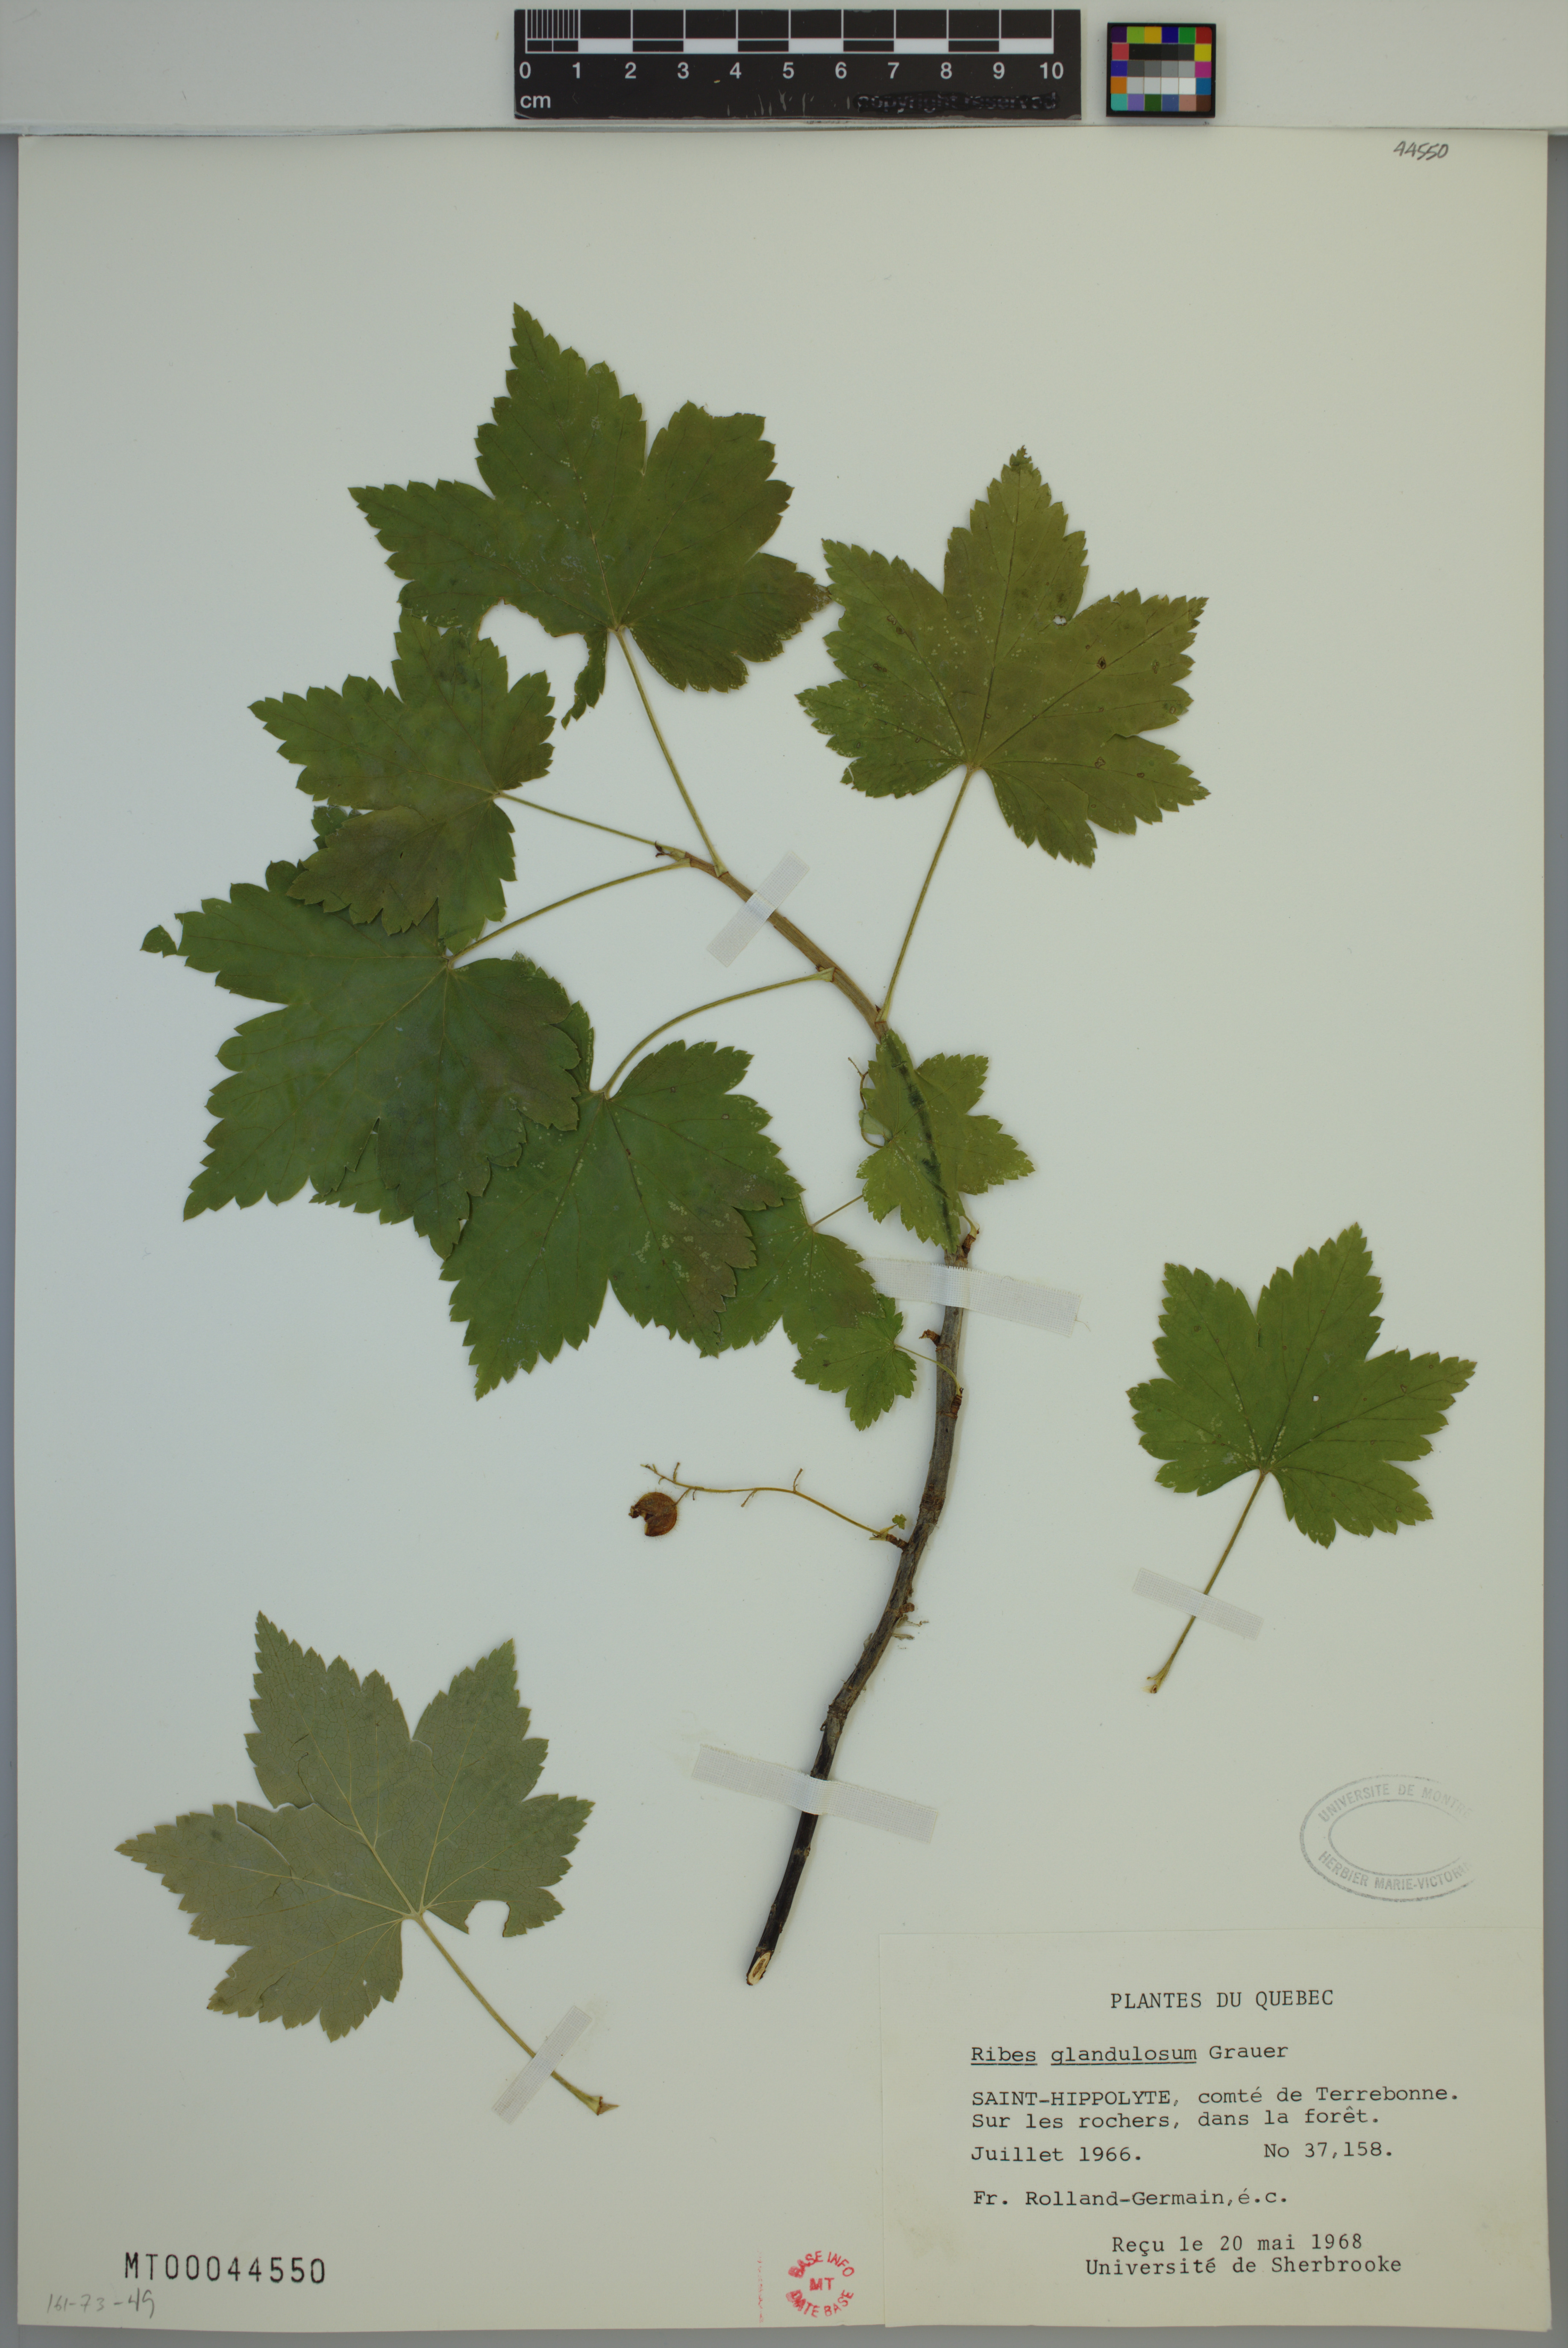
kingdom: Plantae
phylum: Tracheophyta
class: Magnoliopsida
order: Saxifragales
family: Grossulariaceae
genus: Ribes
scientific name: Ribes glandulosum
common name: Skunk currant
